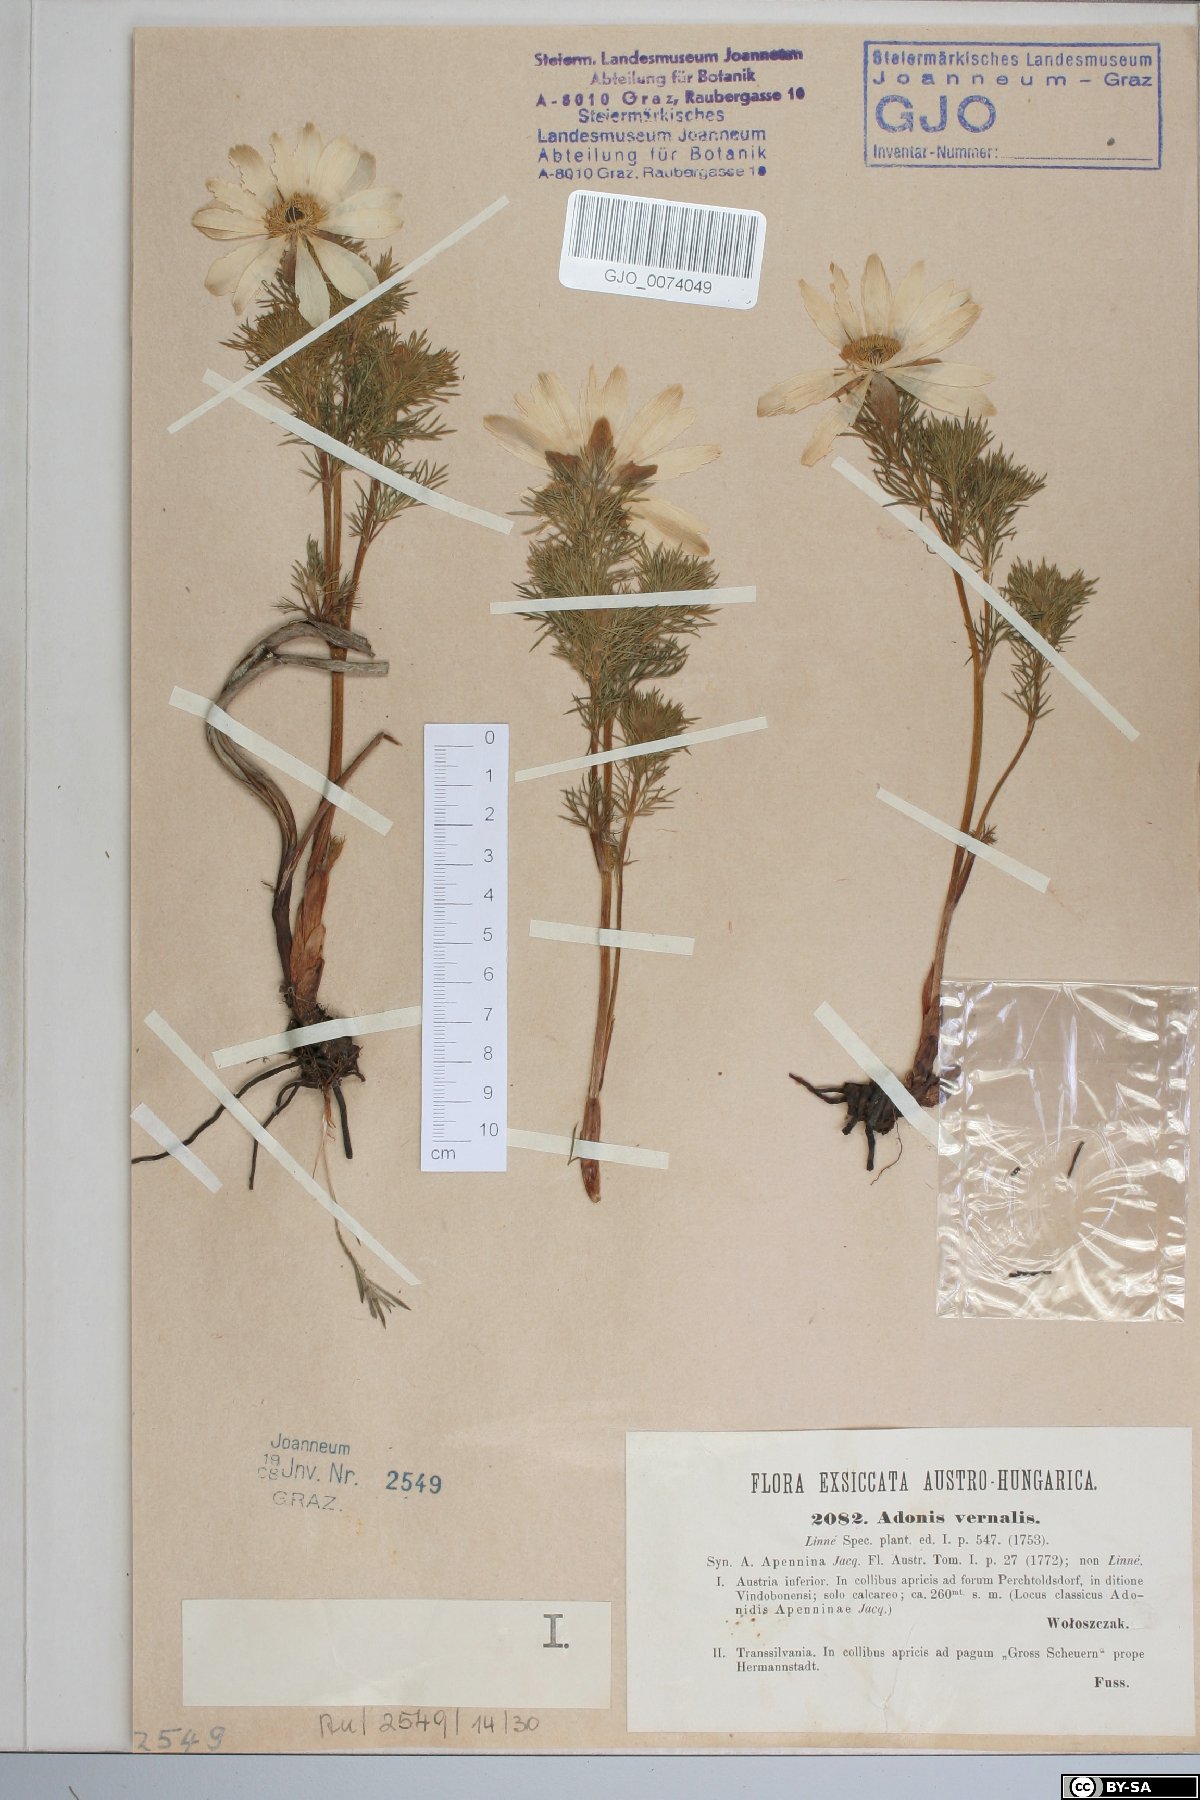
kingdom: Plantae
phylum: Tracheophyta
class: Magnoliopsida
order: Ranunculales
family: Ranunculaceae
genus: Adonis
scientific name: Adonis vernalis
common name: Yellow pheasants-eye
